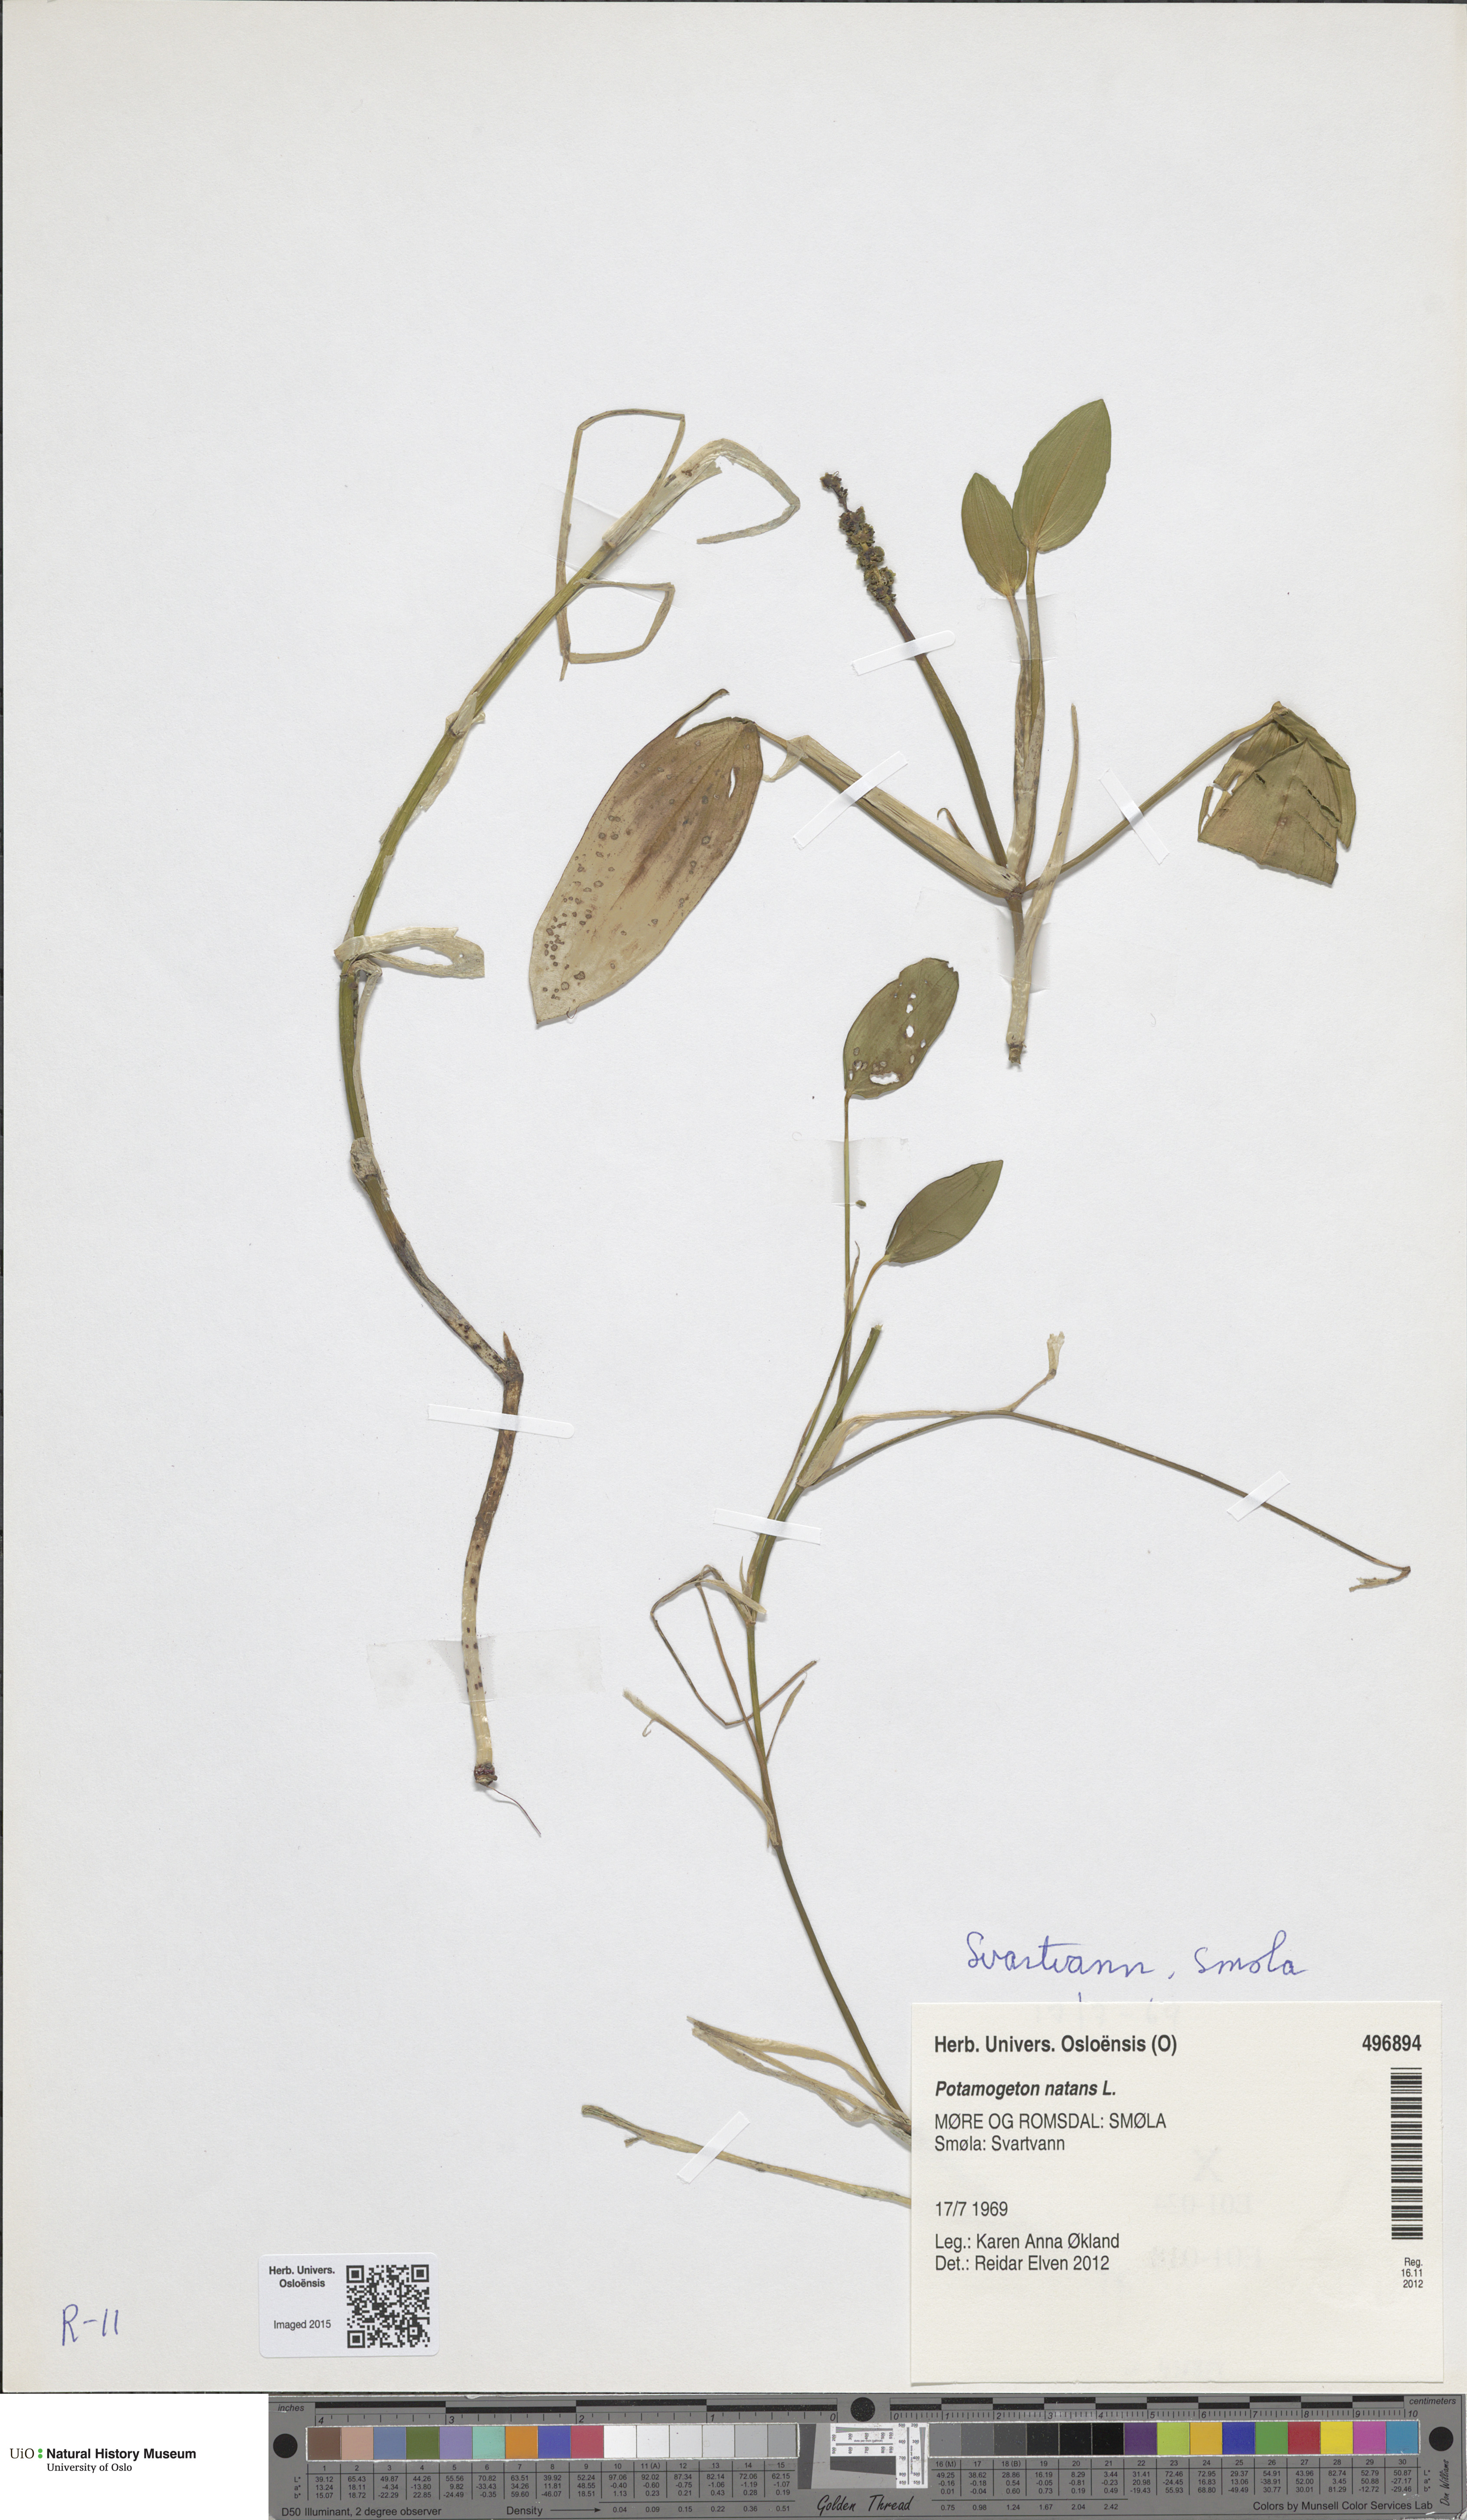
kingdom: Plantae
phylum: Tracheophyta
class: Liliopsida
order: Alismatales
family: Potamogetonaceae
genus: Potamogeton
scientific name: Potamogeton natans
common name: Broad-leaved pondweed
